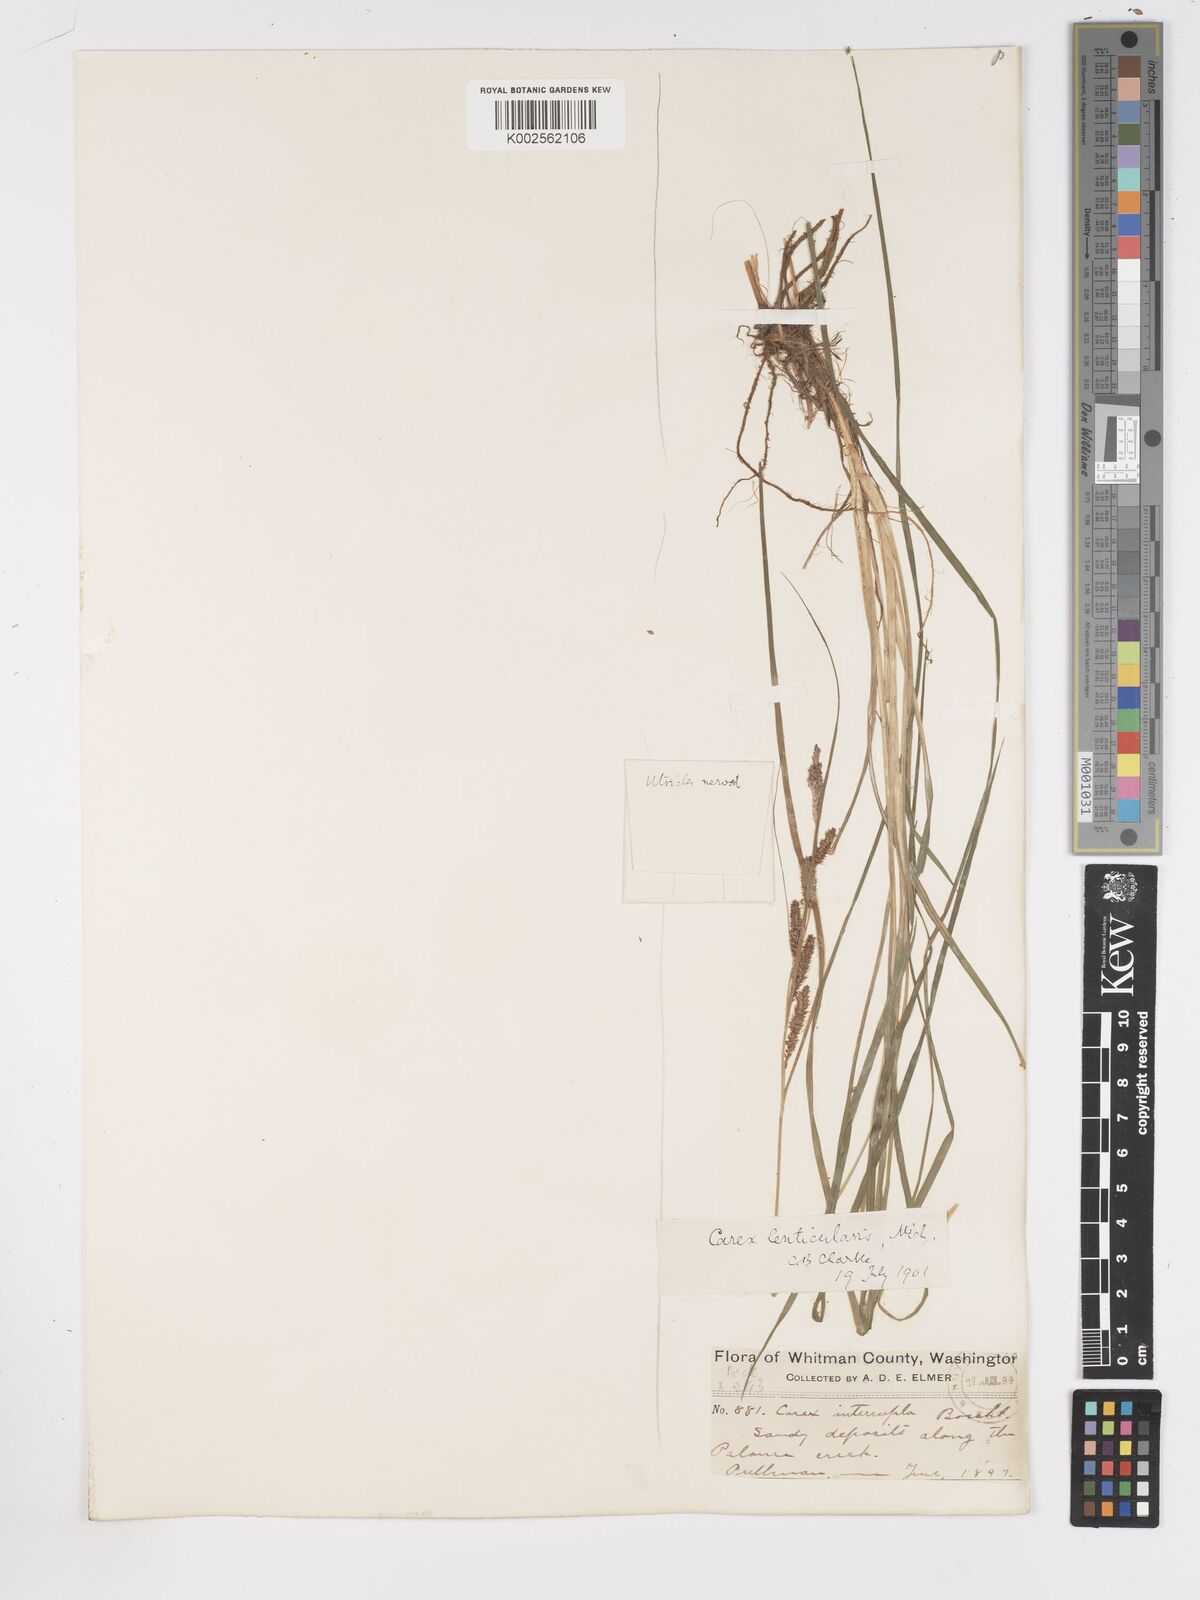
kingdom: Plantae
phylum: Tracheophyta
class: Liliopsida
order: Poales
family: Cyperaceae
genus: Carex
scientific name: Carex lenticularis
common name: Lakeshore sedge
